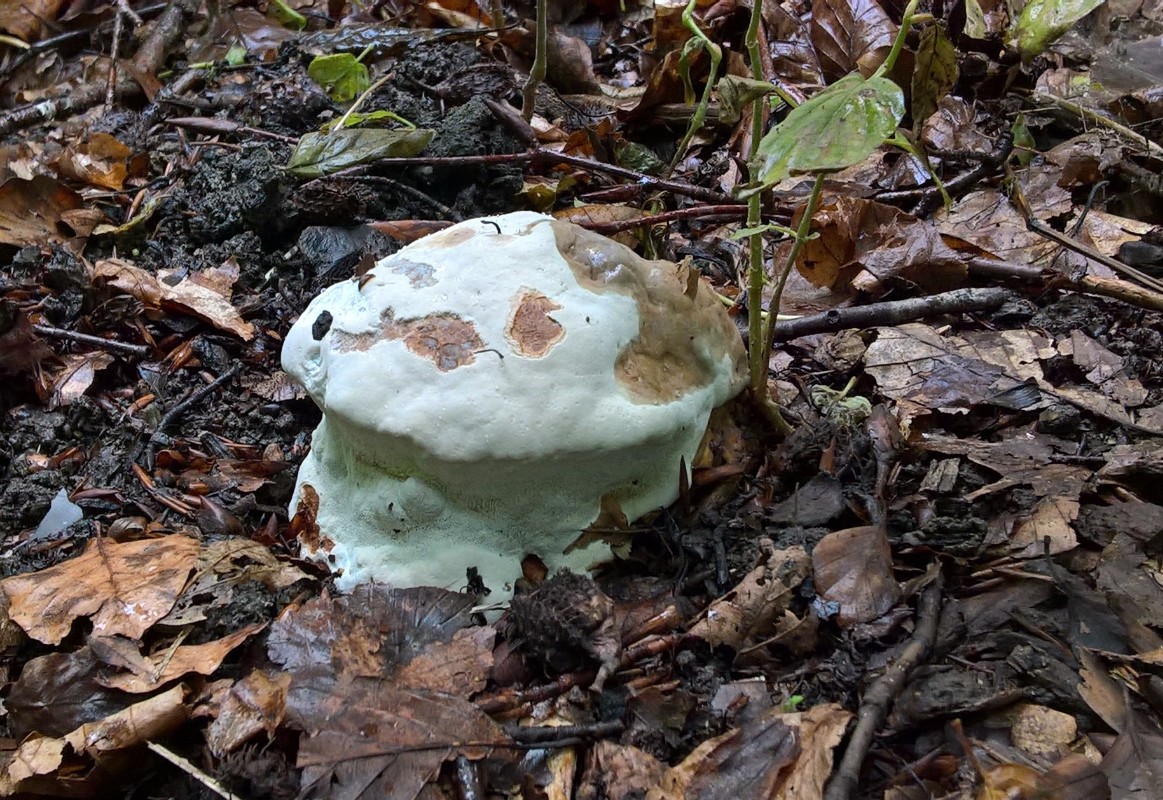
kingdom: Fungi
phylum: Basidiomycota
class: Agaricomycetes
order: Polyporales
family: Polyporaceae
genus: Ganoderma
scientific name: Ganoderma pfeifferi
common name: kobberrød lakporesvamp
